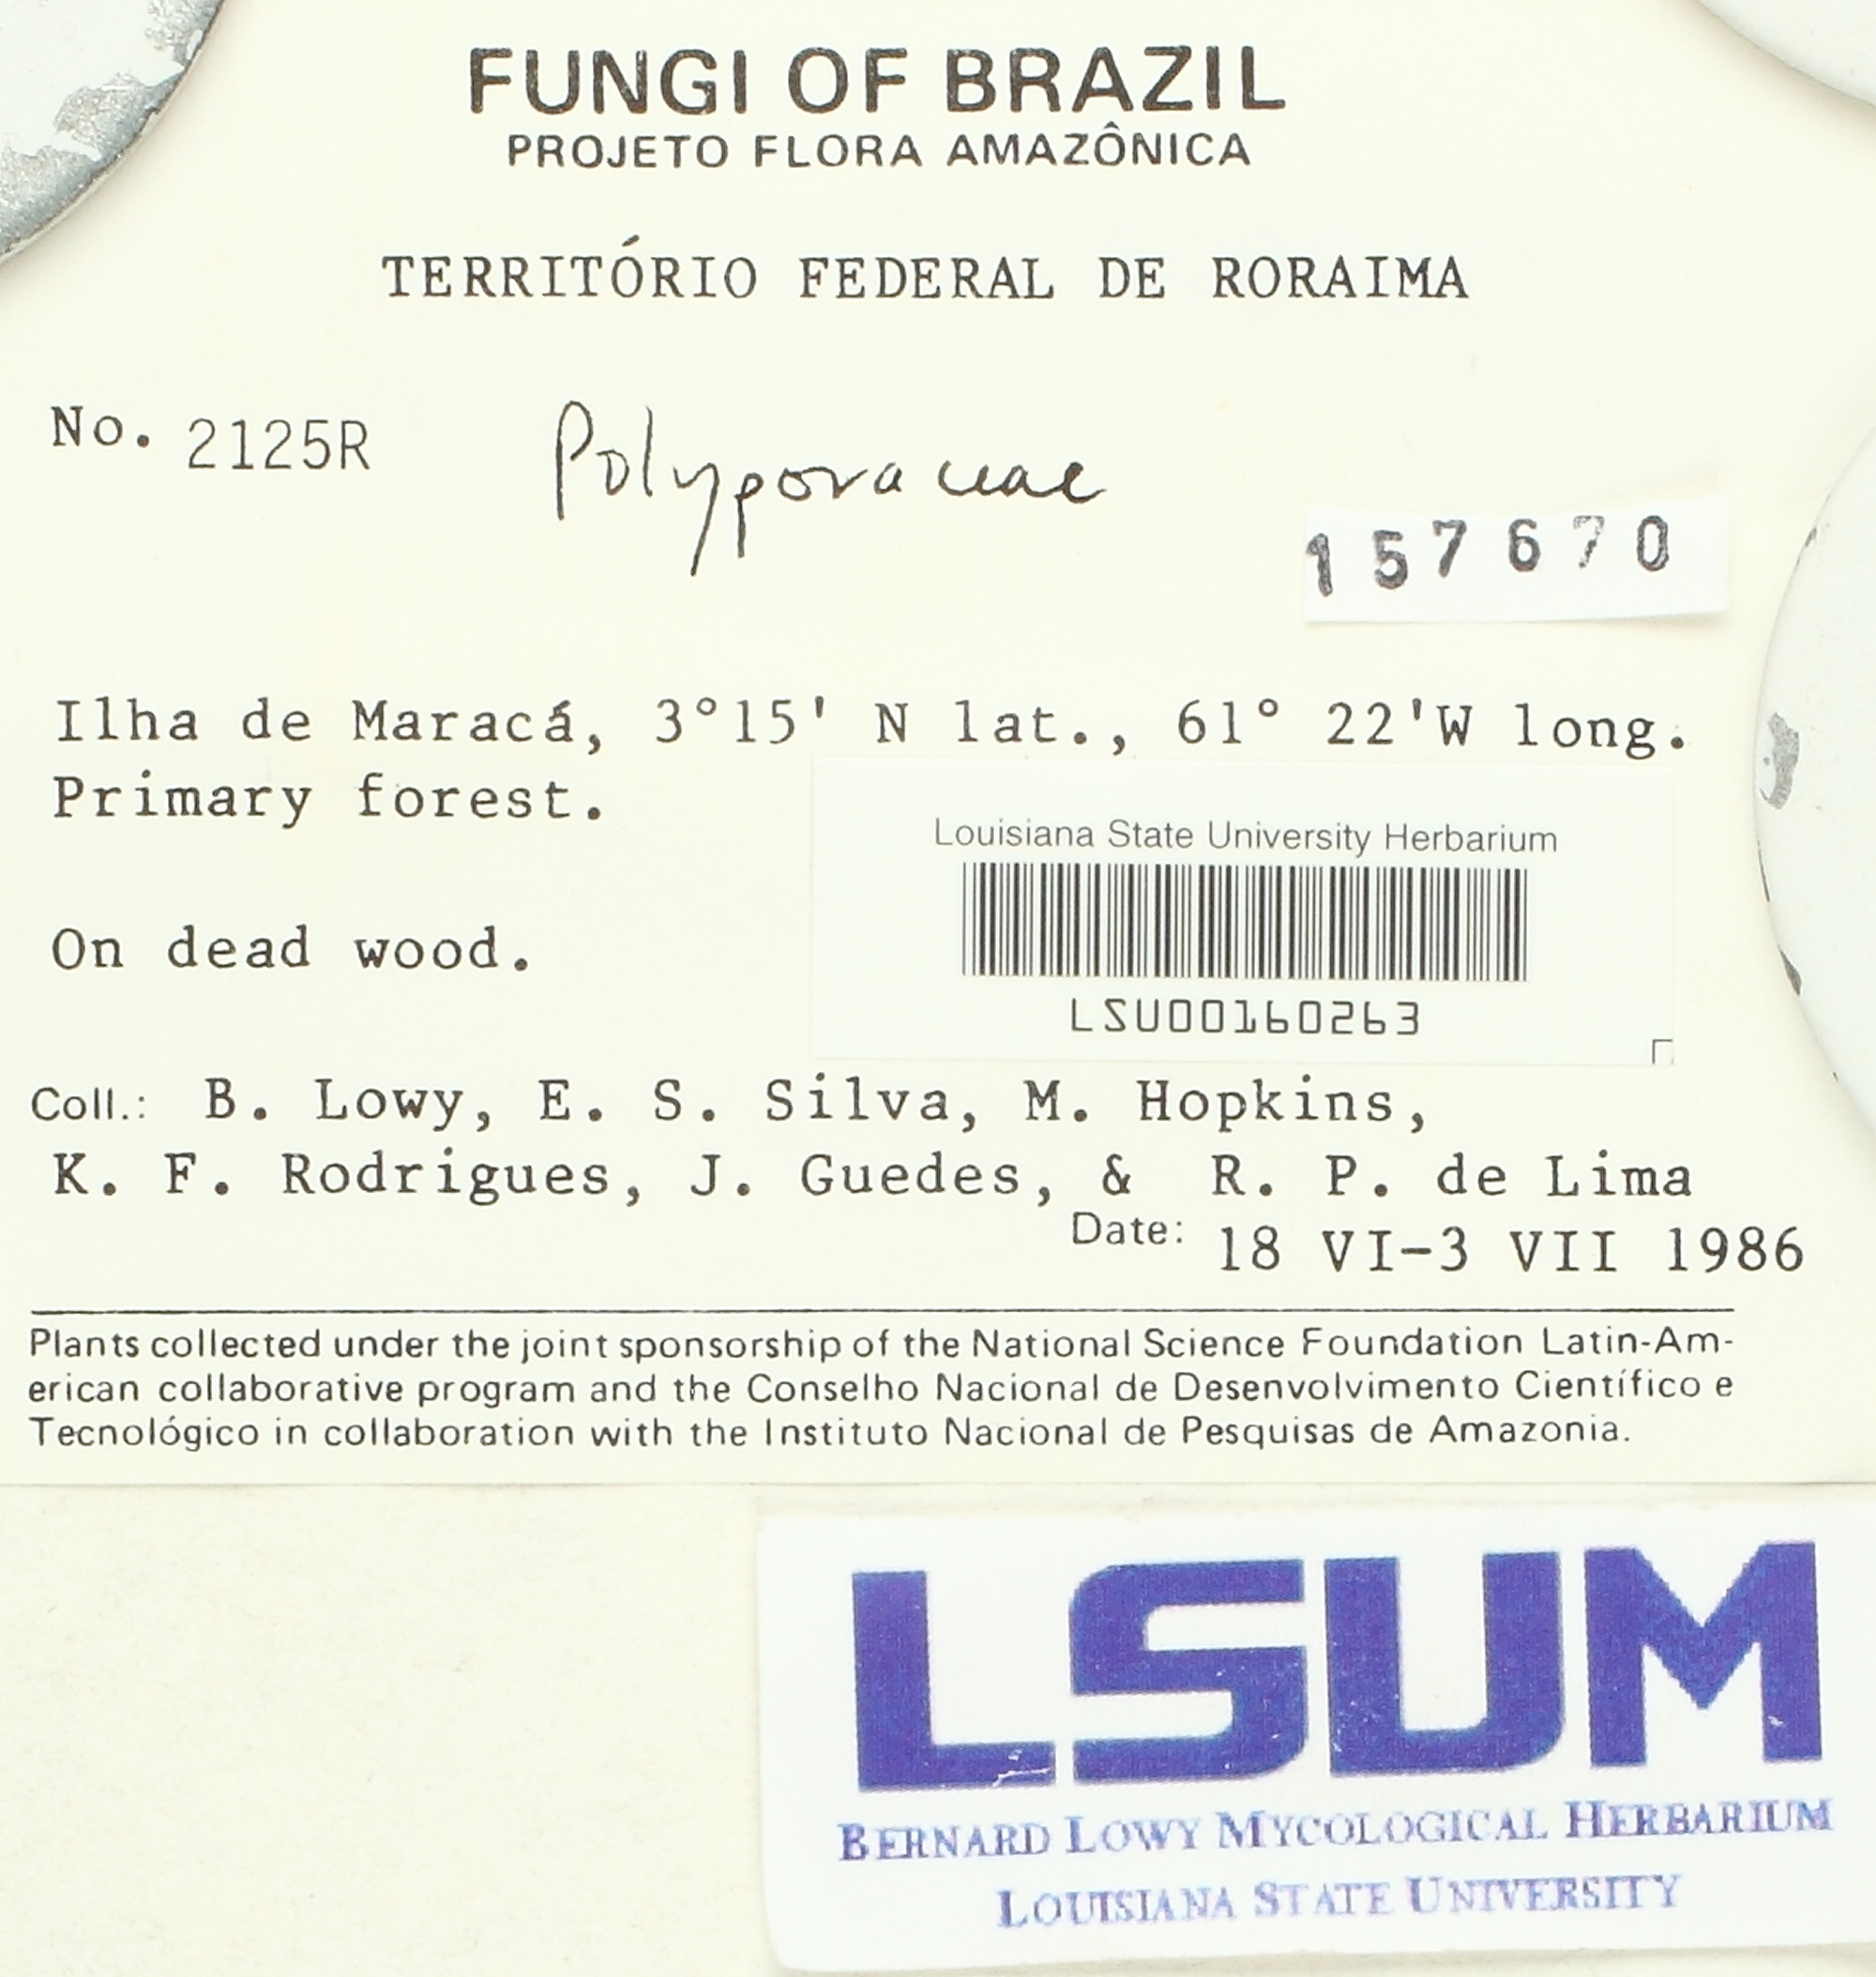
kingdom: Fungi
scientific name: Fungi
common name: Fungi
